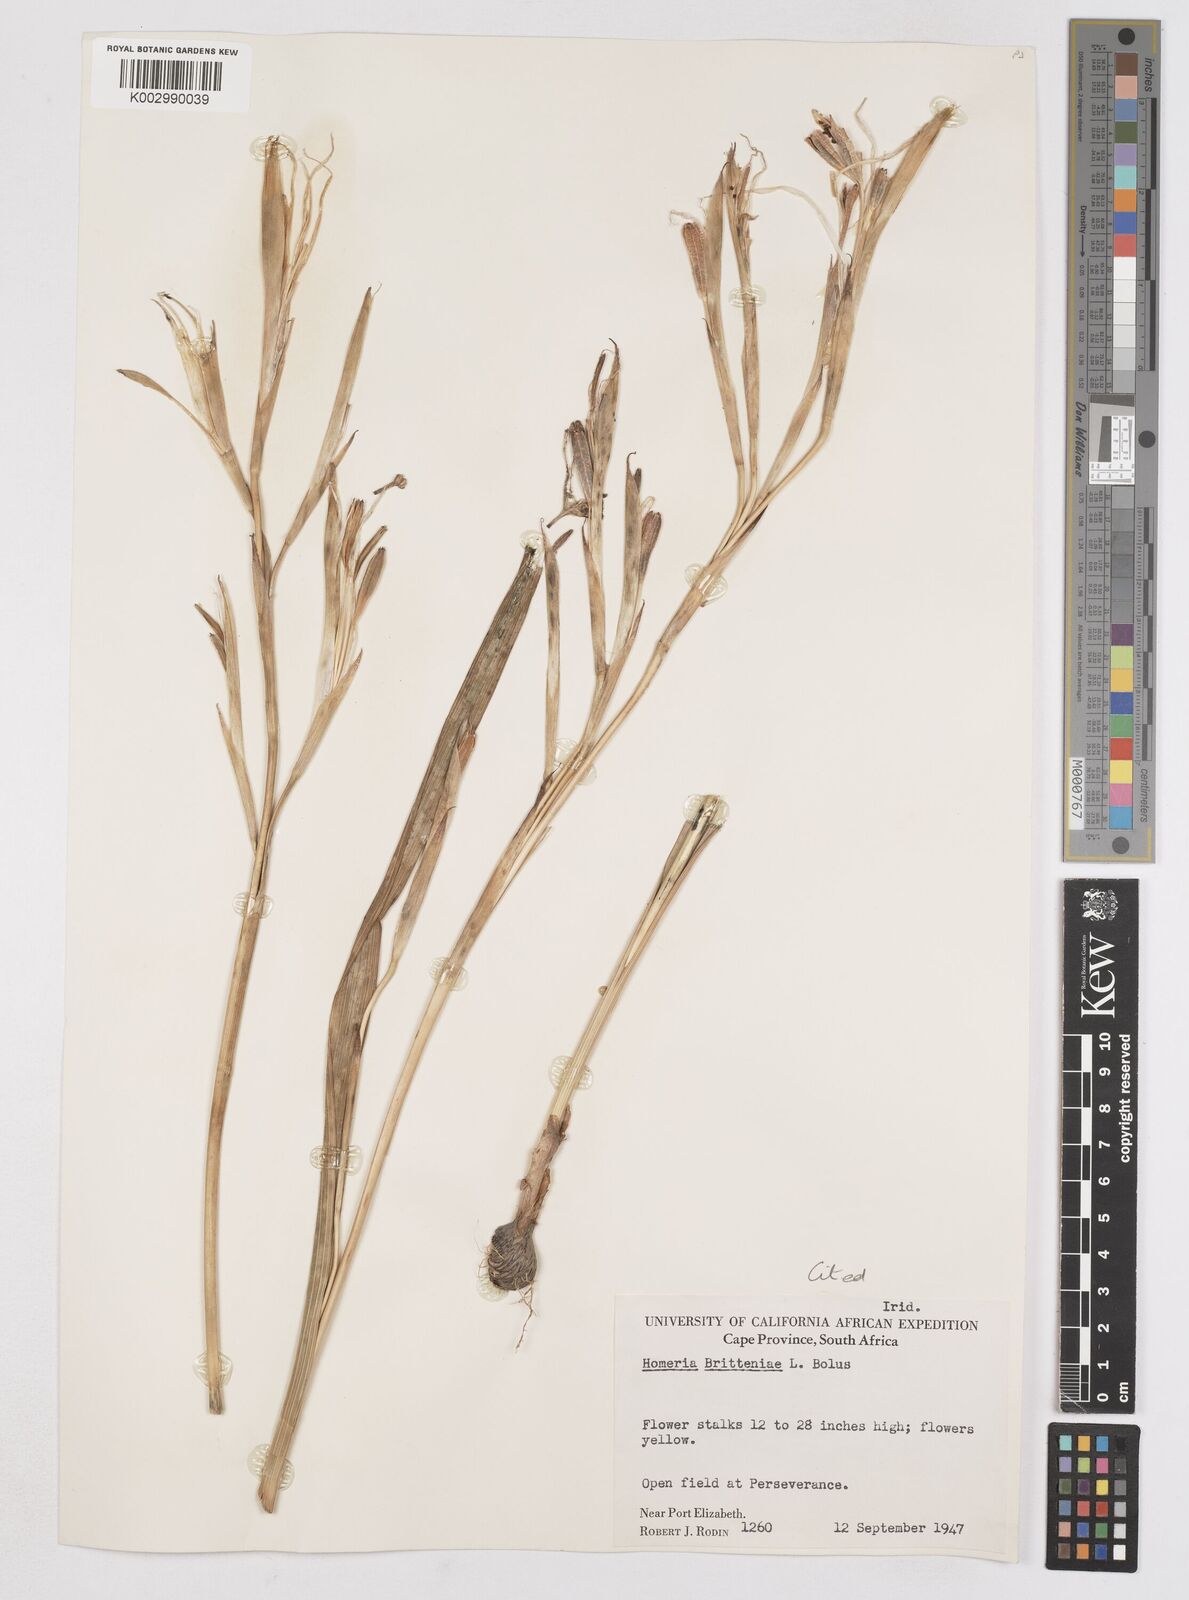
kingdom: Plantae
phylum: Tracheophyta
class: Liliopsida
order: Asparagales
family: Iridaceae
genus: Moraea
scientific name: Moraea britteniae
